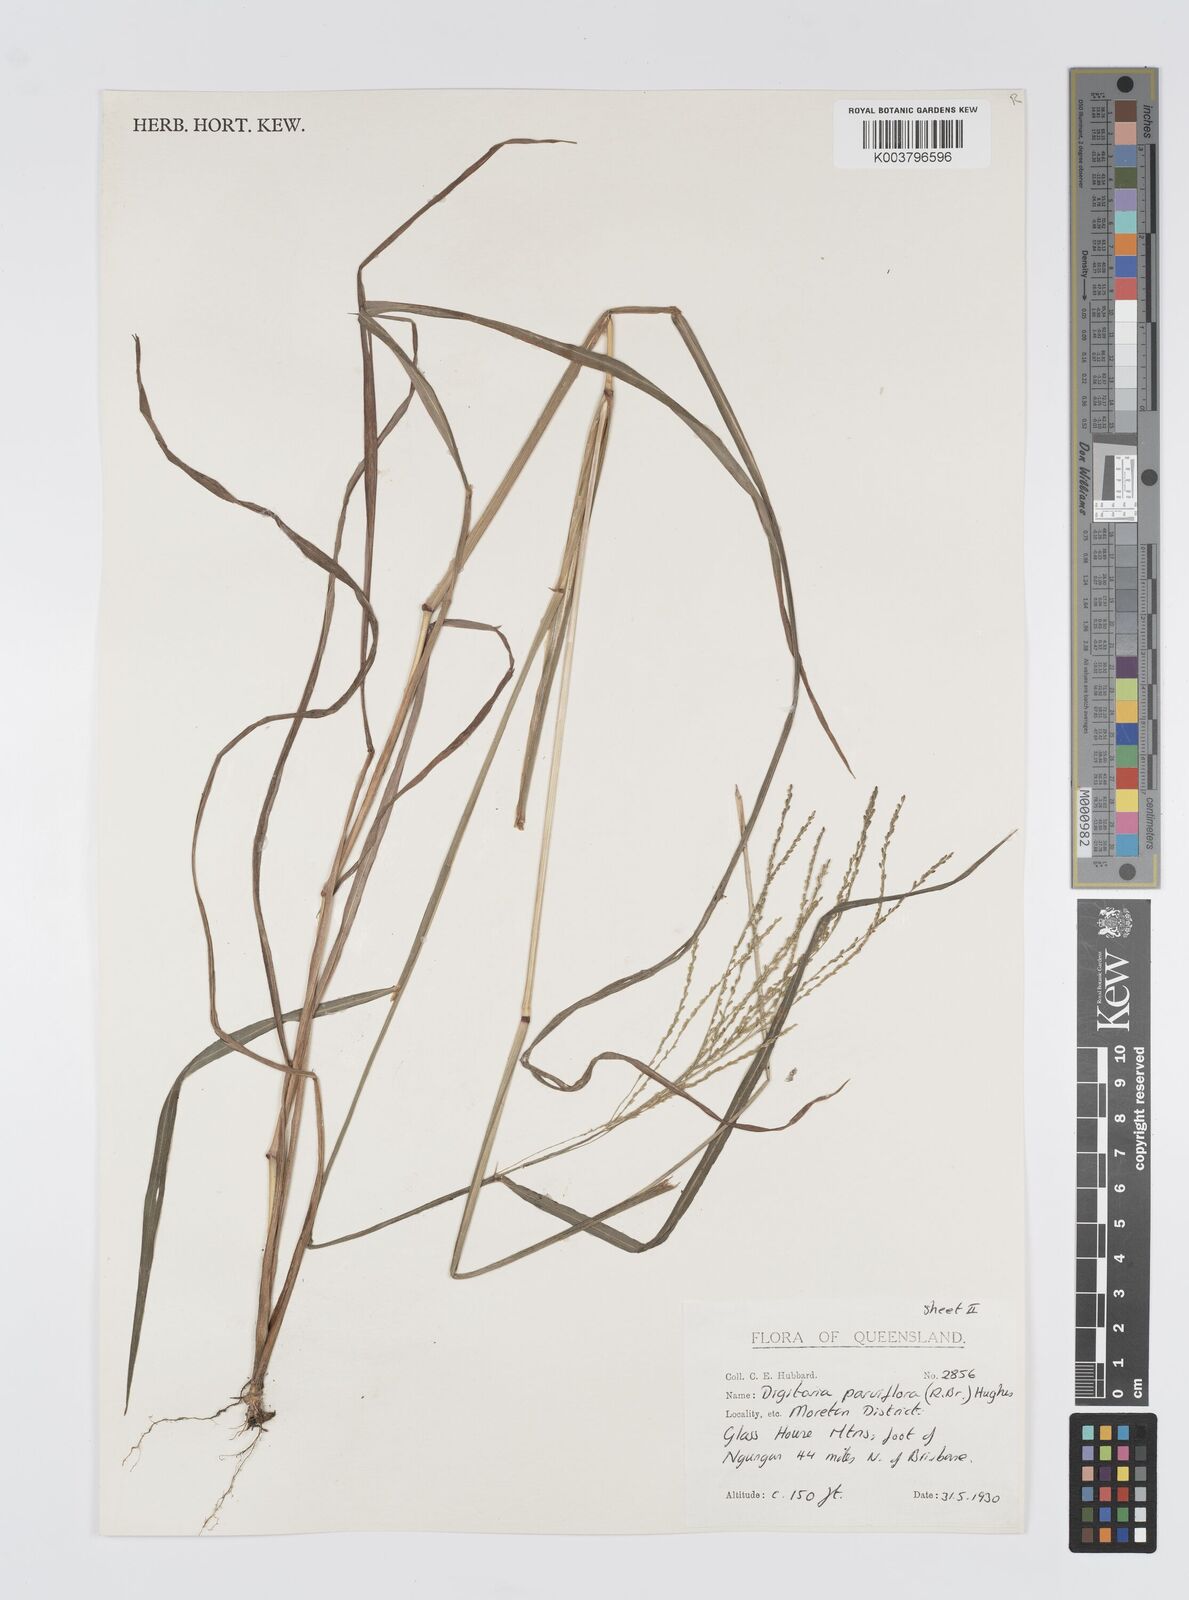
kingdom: Plantae
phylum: Tracheophyta
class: Liliopsida
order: Poales
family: Poaceae
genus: Digitaria
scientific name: Digitaria parviflora
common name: Small-flower finger grass
